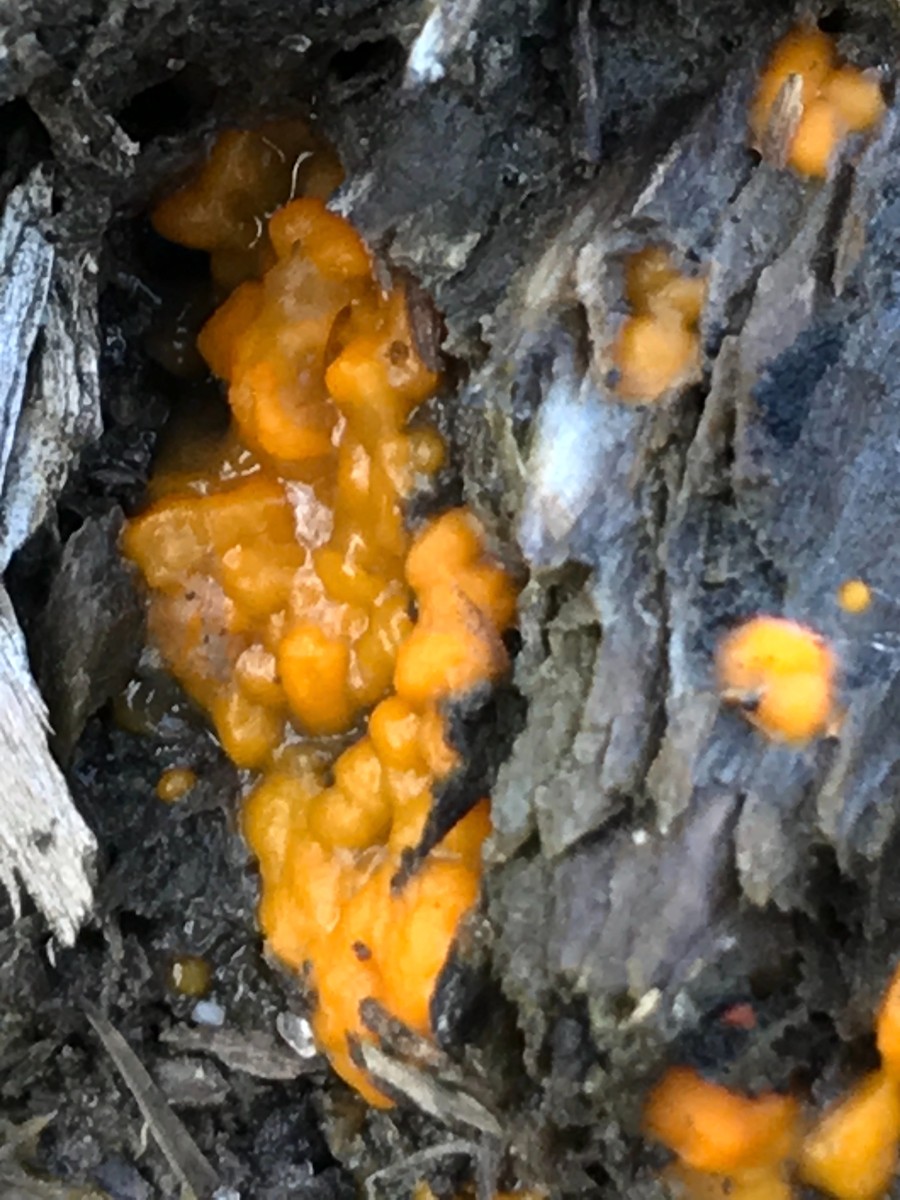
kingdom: Fungi
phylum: Basidiomycota
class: Dacrymycetes
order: Dacrymycetales
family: Dacrymycetaceae
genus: Dacrymyces
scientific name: Dacrymyces stillatus
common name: almindelig tåresvamp
